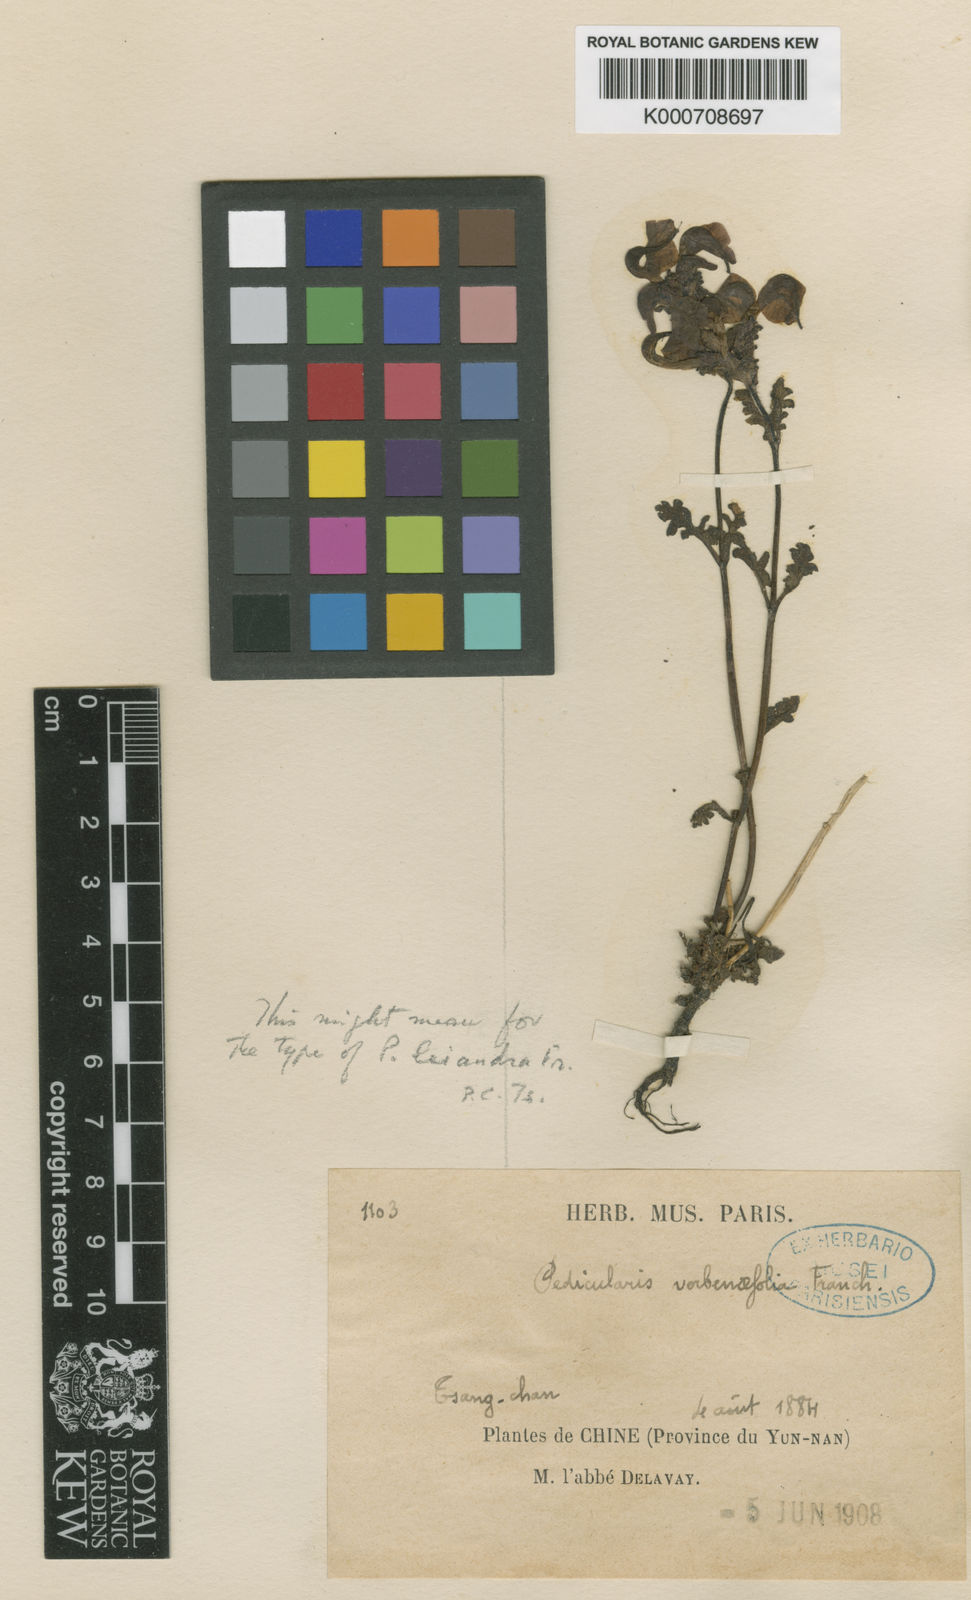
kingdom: Plantae
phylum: Tracheophyta
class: Magnoliopsida
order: Lamiales
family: Orobanchaceae
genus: Pedicularis
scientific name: Pedicularis
